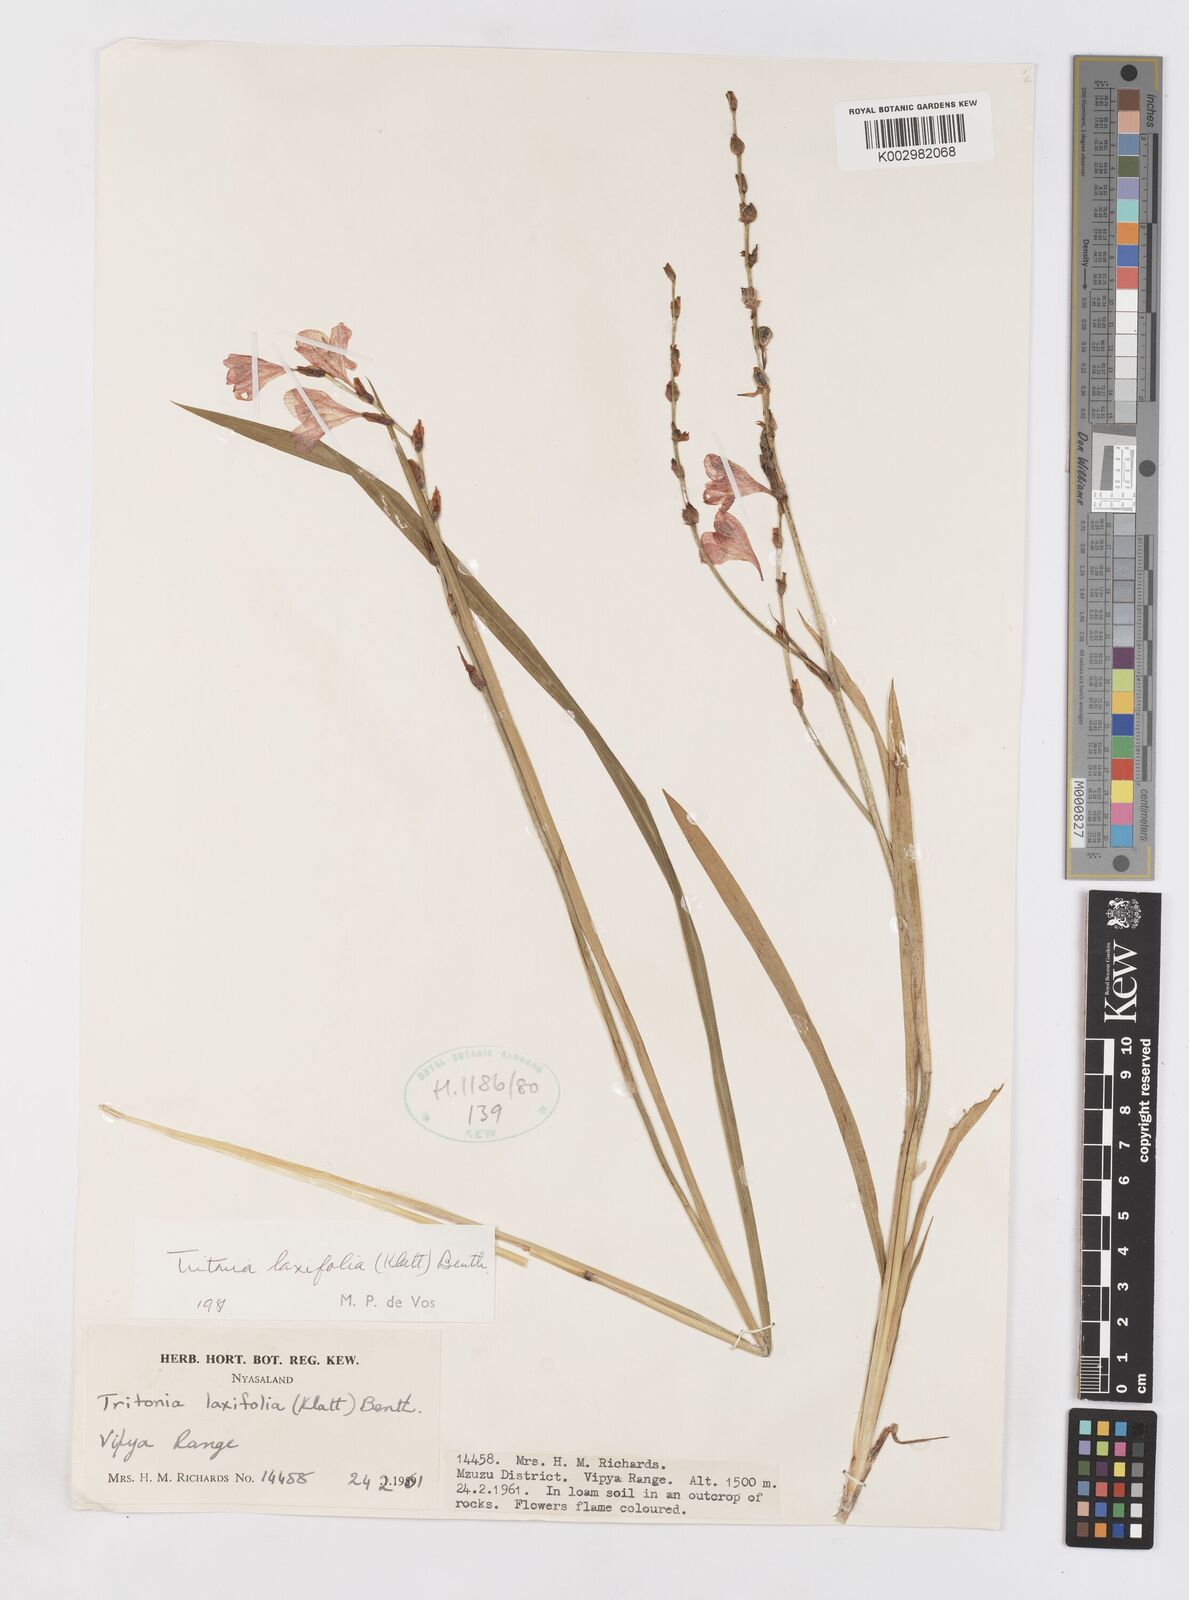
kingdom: Plantae
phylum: Tracheophyta
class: Liliopsida
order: Asparagales
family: Iridaceae
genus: Tritonia
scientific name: Tritonia laxifolia
